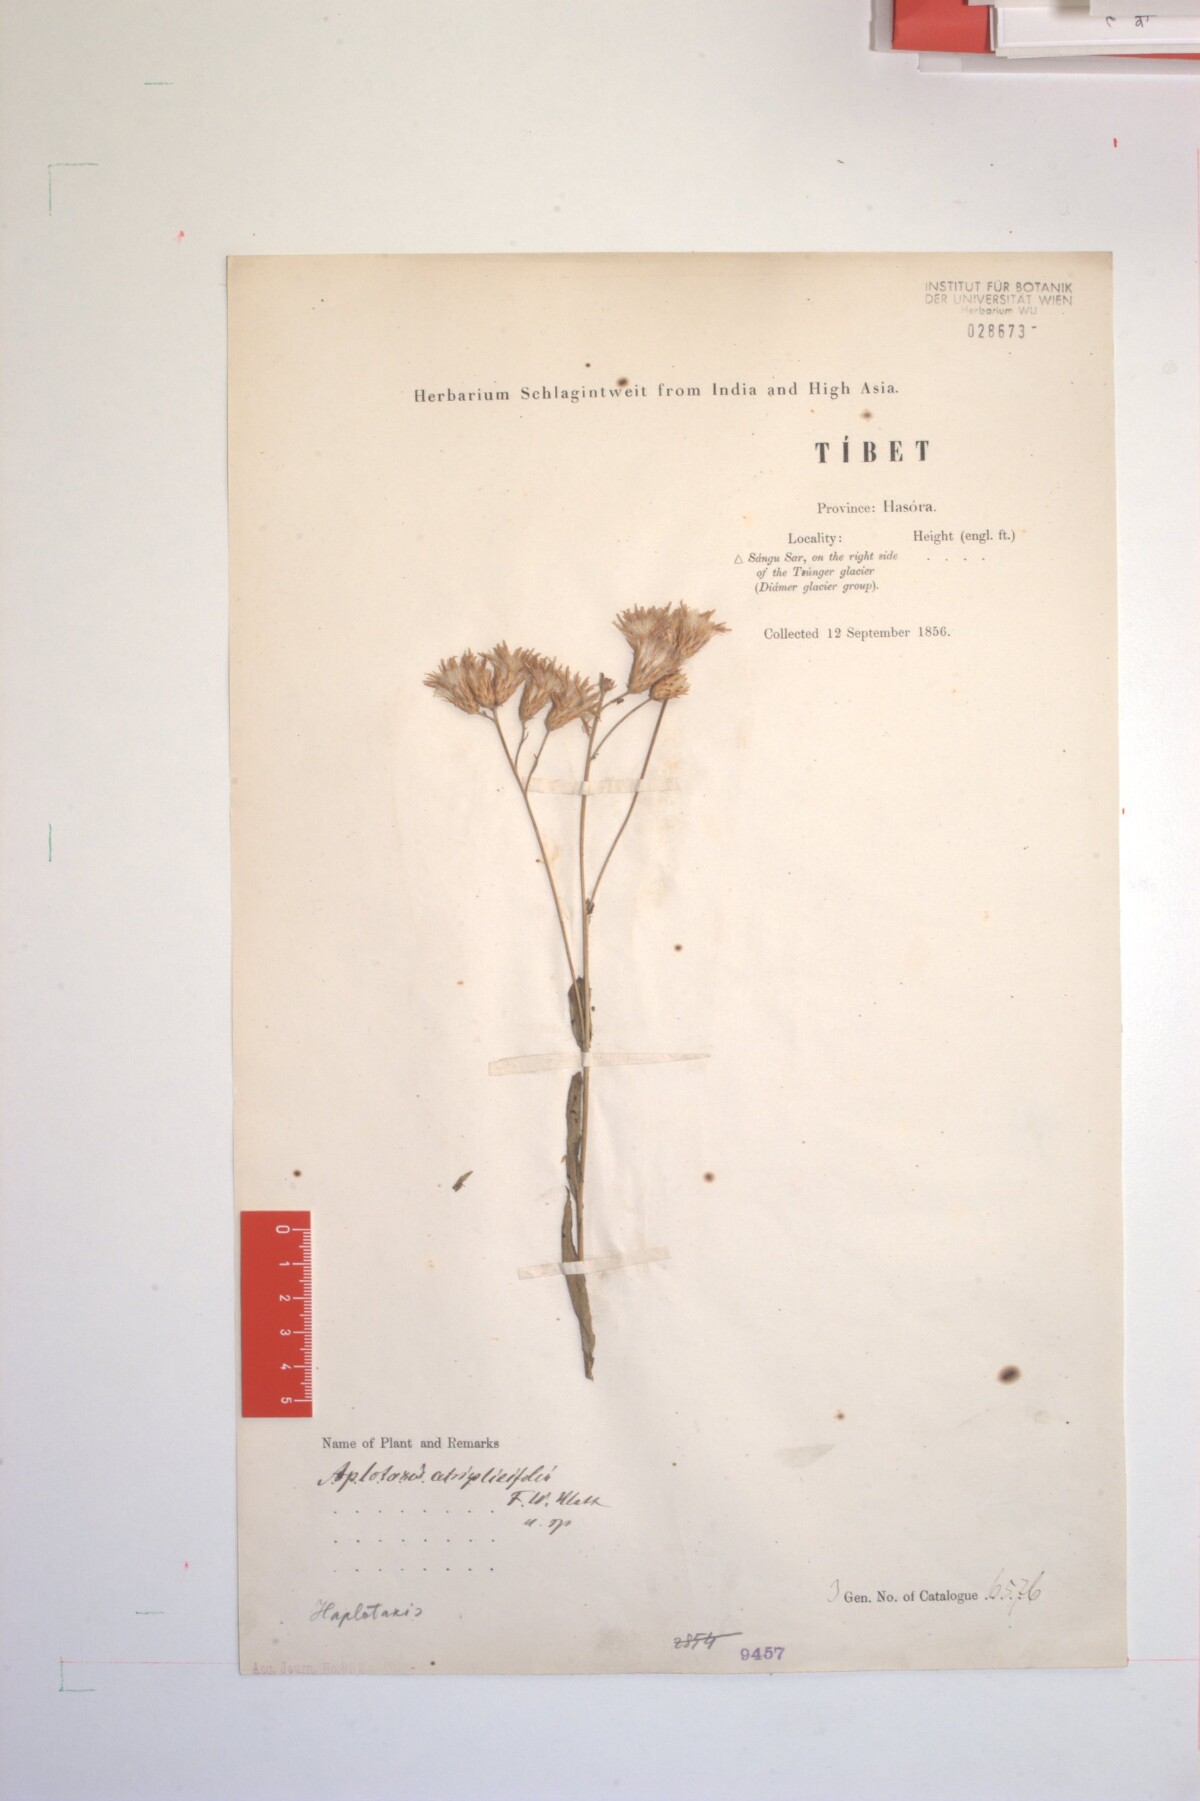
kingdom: Plantae
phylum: Tracheophyta
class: Magnoliopsida
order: Asterales
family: Asteraceae
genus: Jurinea
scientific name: Jurinea chenopodiifolia
